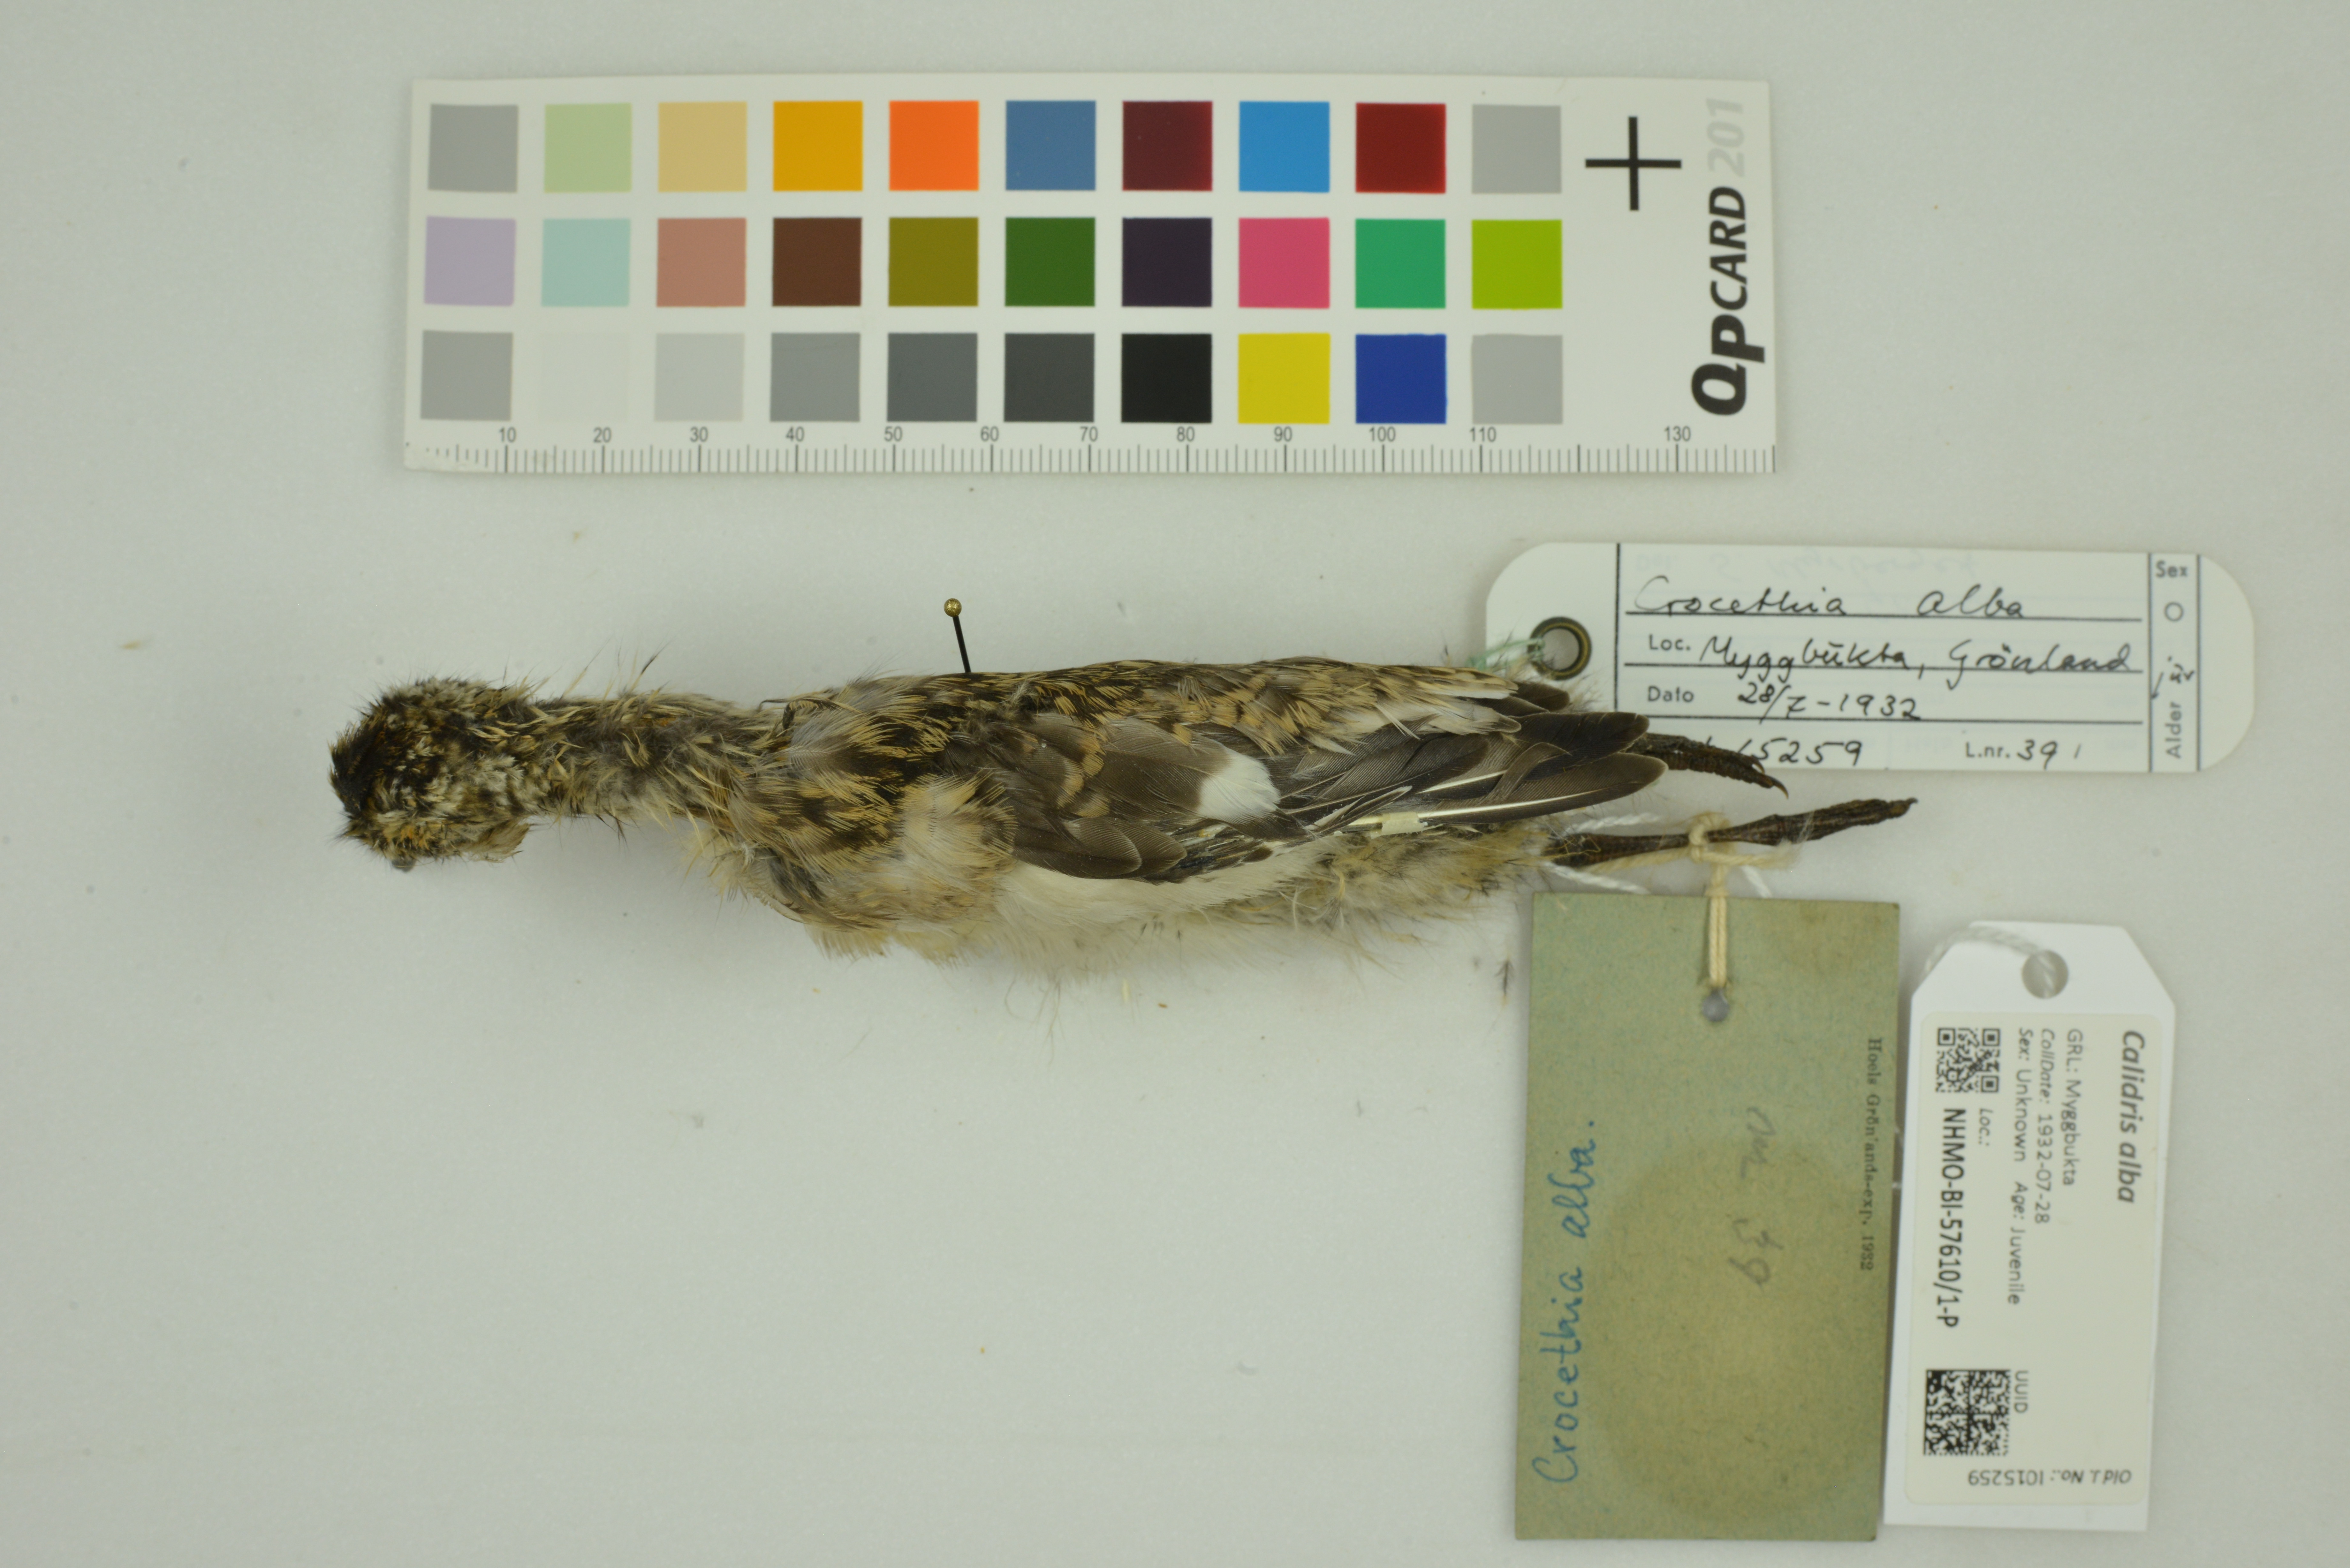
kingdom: Animalia
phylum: Chordata
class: Aves
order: Charadriiformes
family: Scolopacidae
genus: Calidris
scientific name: Calidris alba
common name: Sanderling
